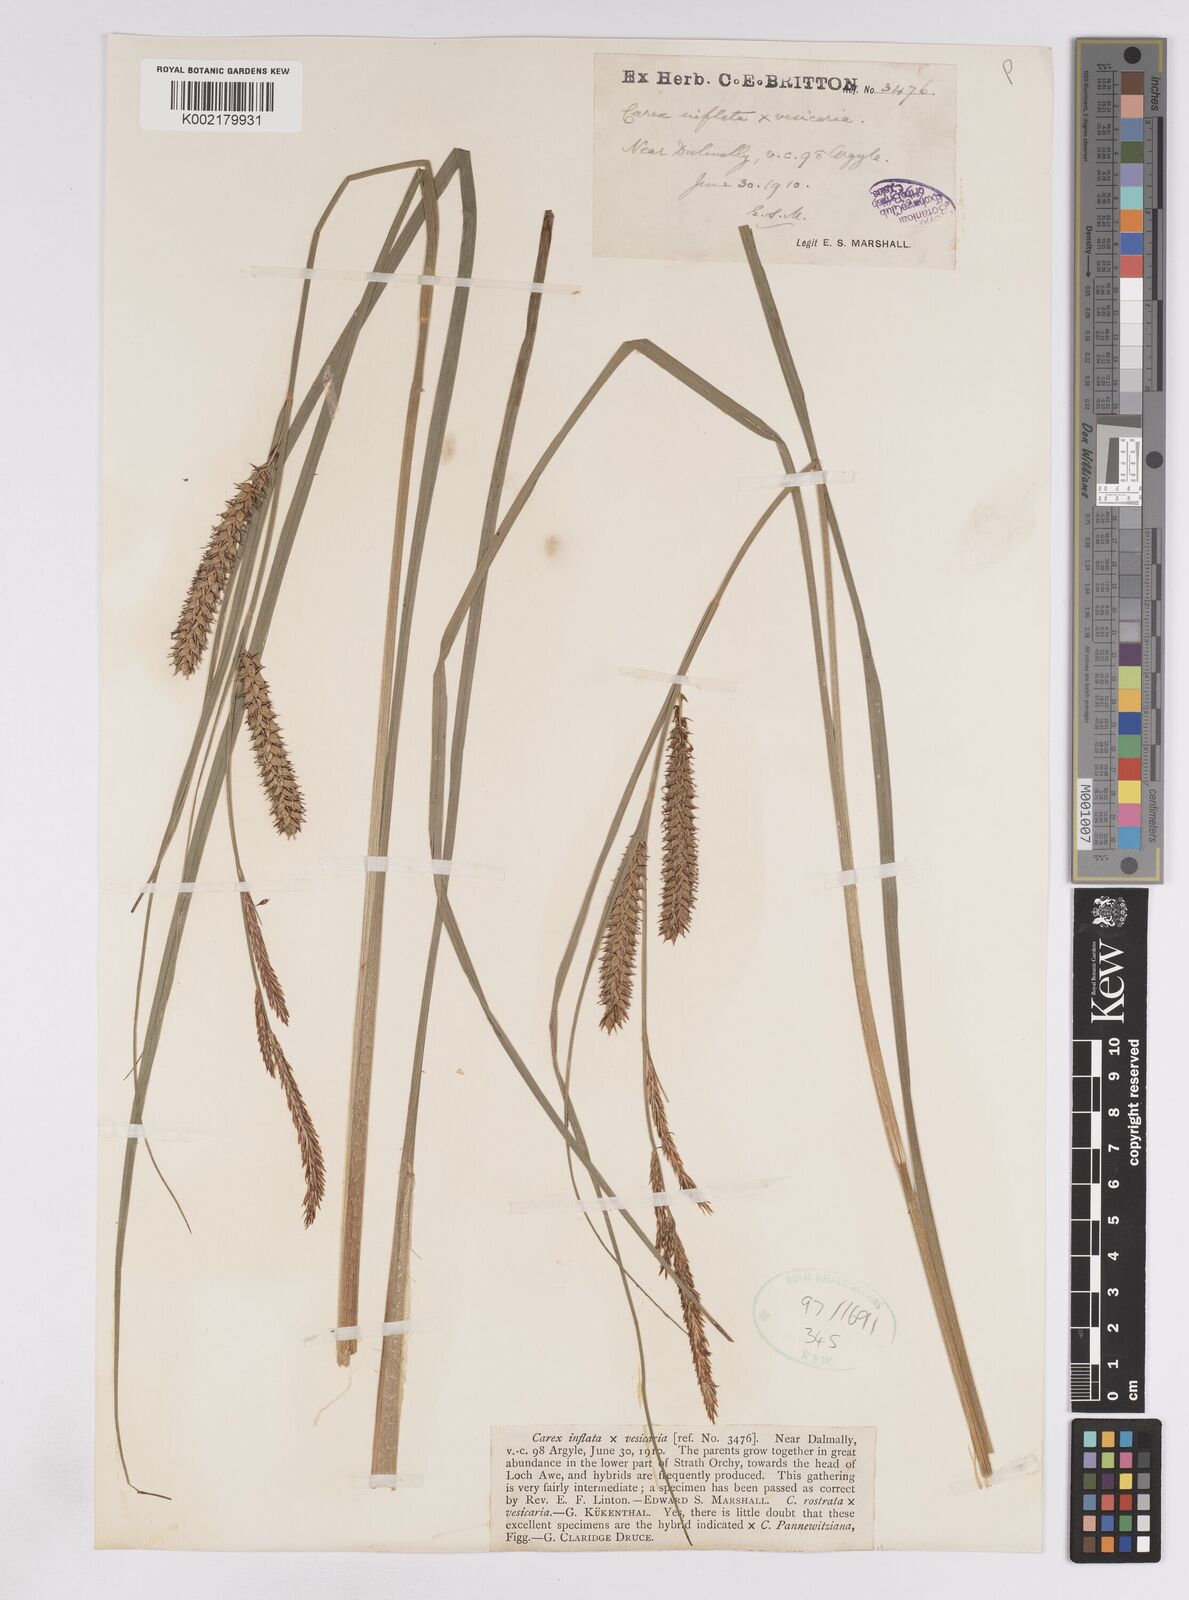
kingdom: Plantae
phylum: Tracheophyta
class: Liliopsida
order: Poales
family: Cyperaceae
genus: Carex
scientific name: Carex rostrata
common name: Bottle sedge
